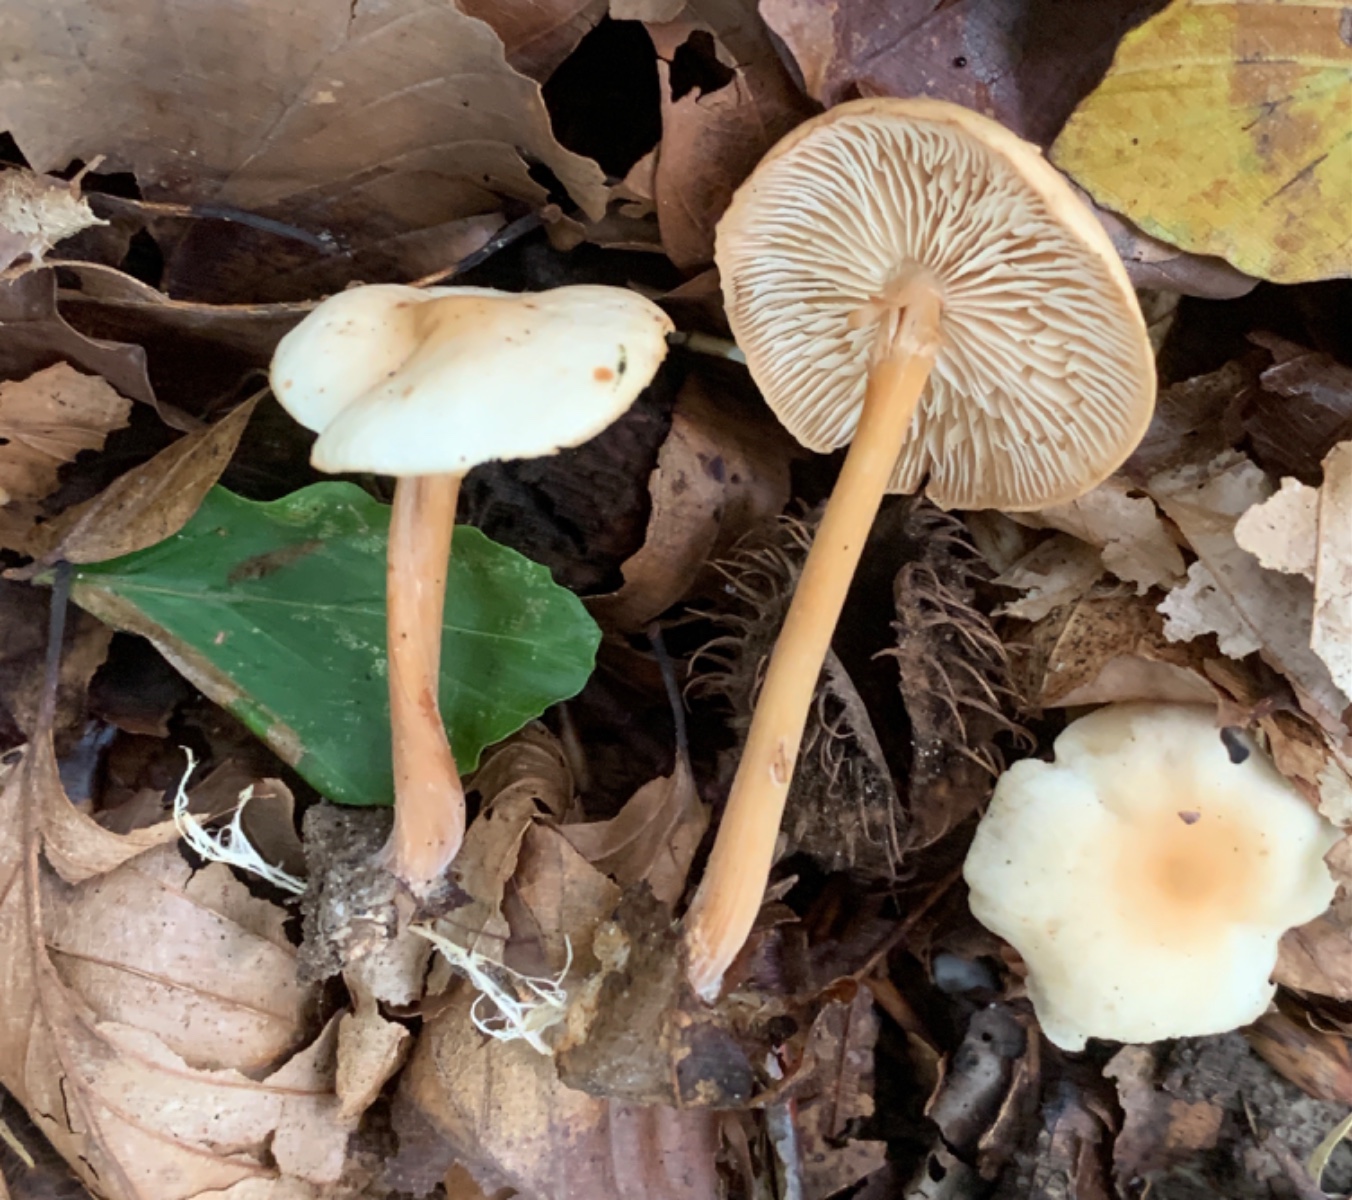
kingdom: Fungi
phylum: Basidiomycota
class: Agaricomycetes
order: Agaricales
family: Omphalotaceae
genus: Gymnopus
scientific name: Gymnopus dryophilus
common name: løv-fladhat
